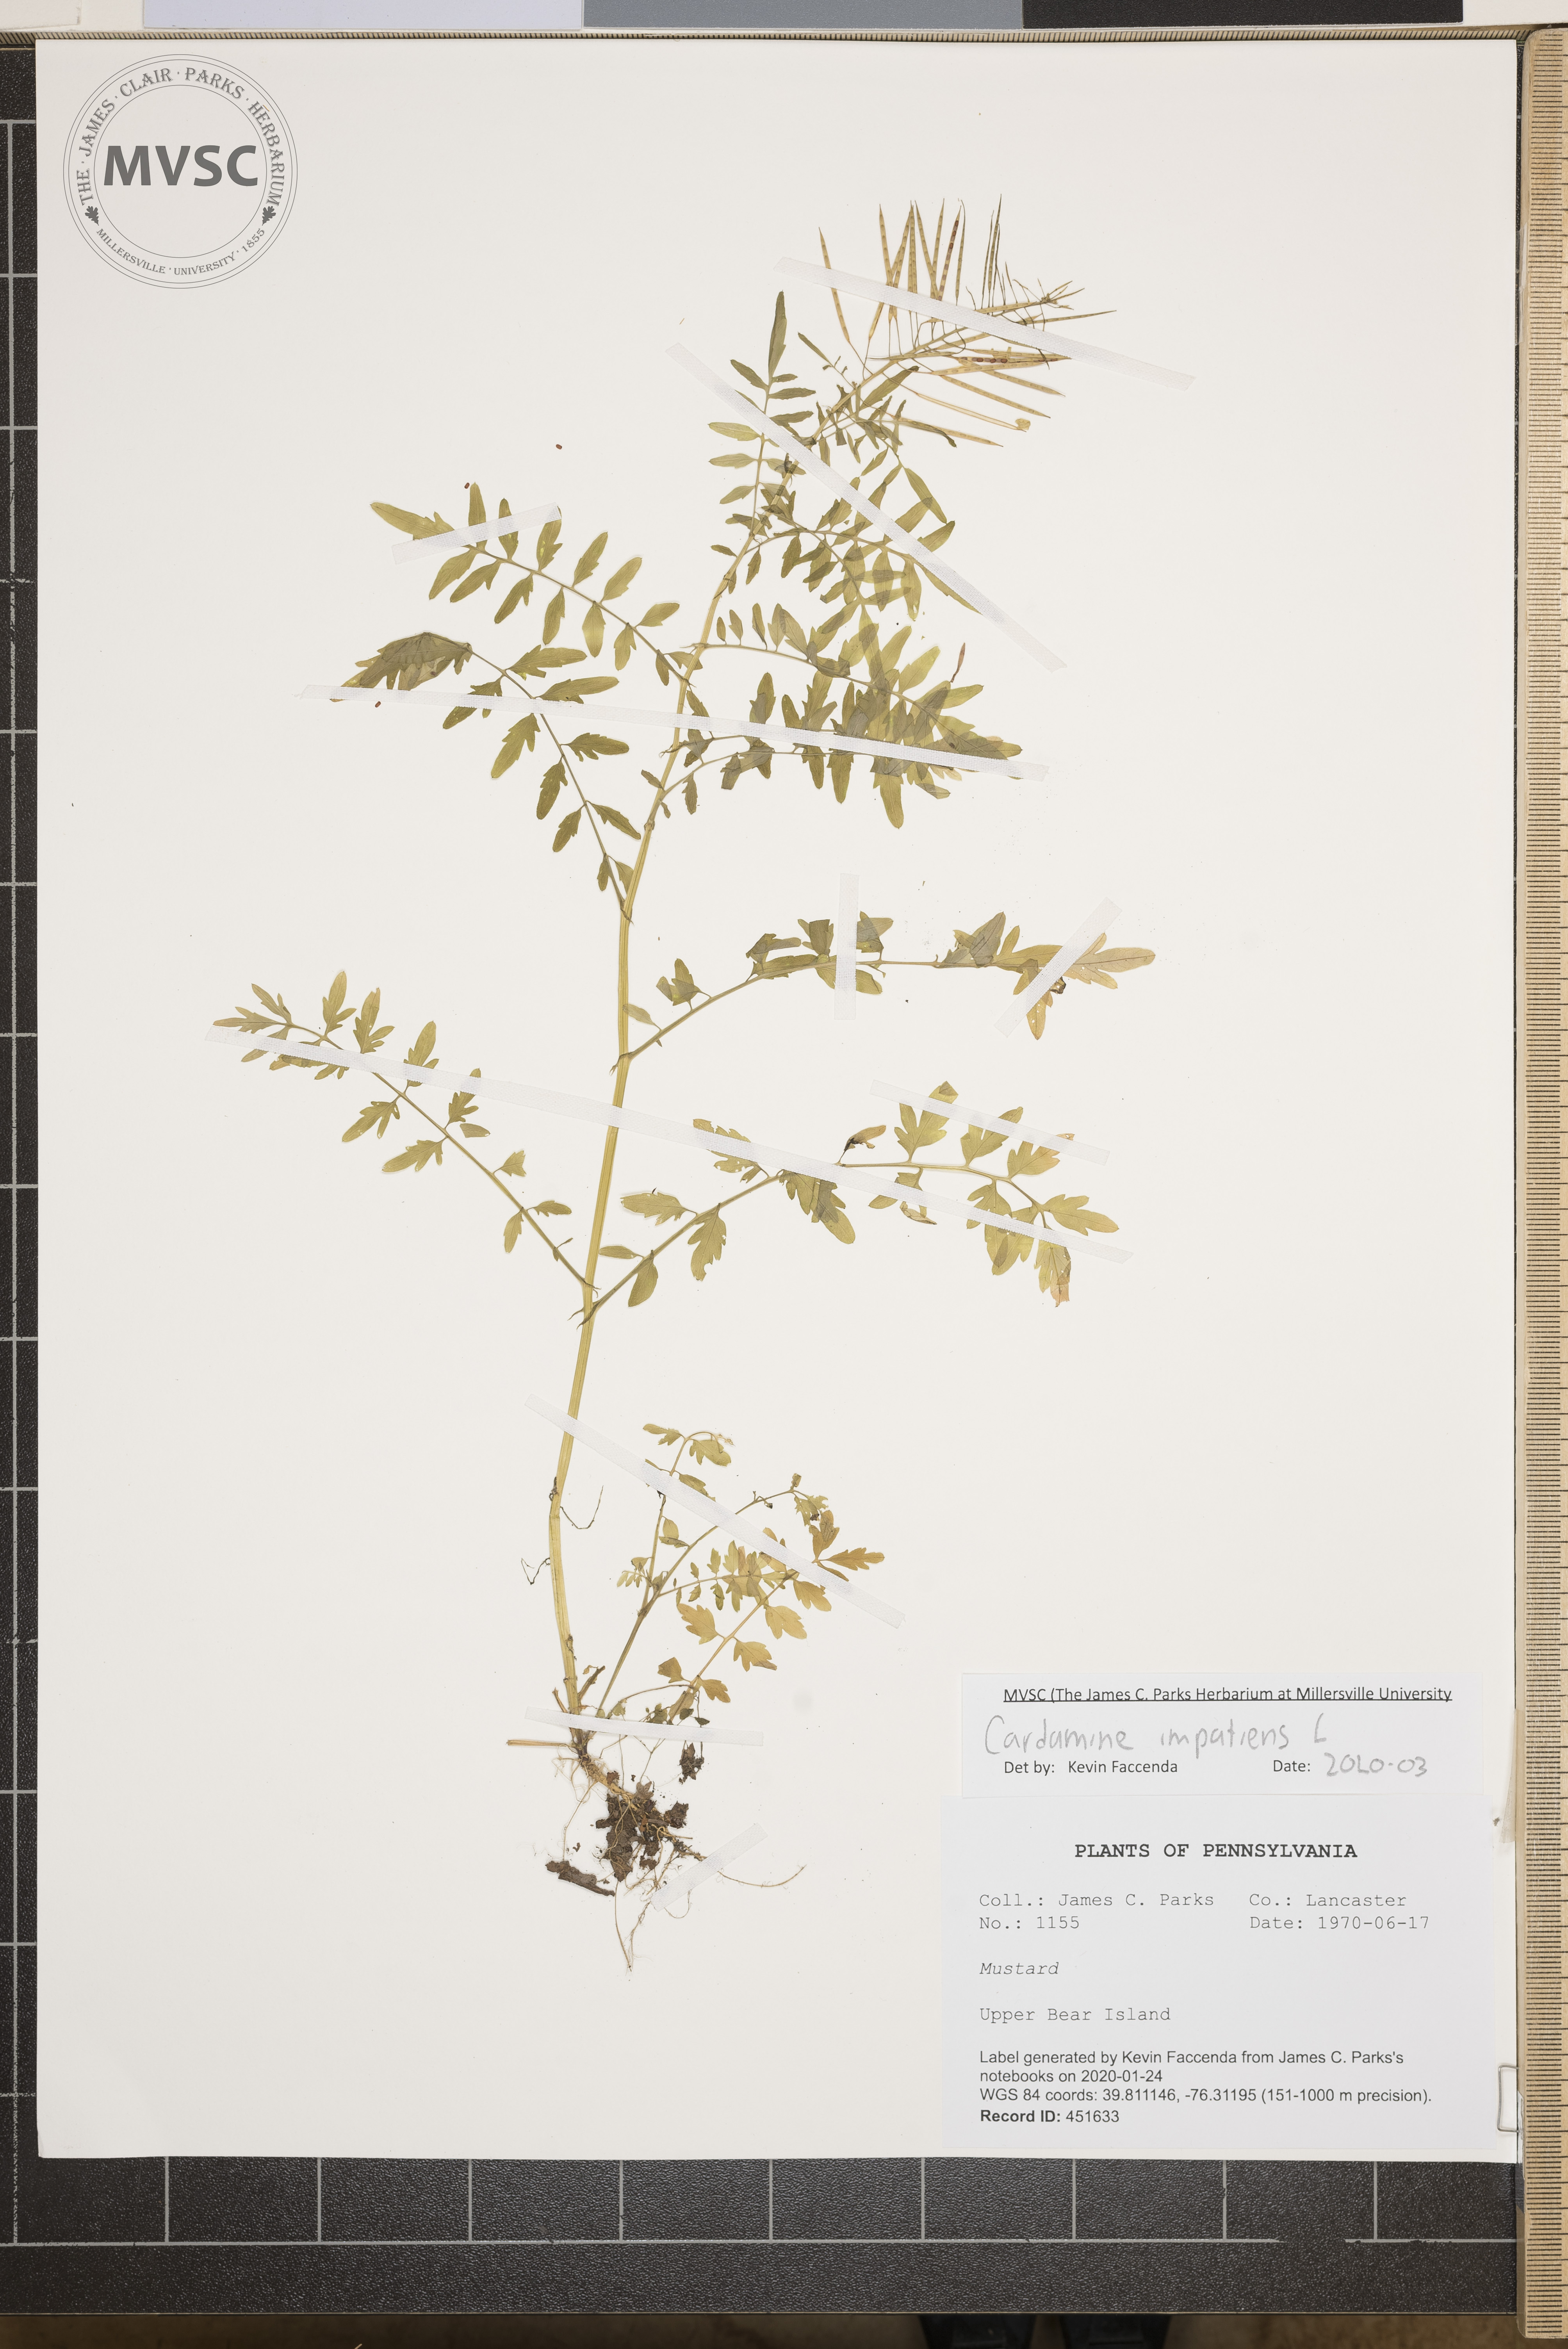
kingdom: Plantae
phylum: Tracheophyta
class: Magnoliopsida
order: Brassicales
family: Brassicaceae
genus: Cardamine
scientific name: Cardamine impatiens
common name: Narrow-leaved bitter-cress
